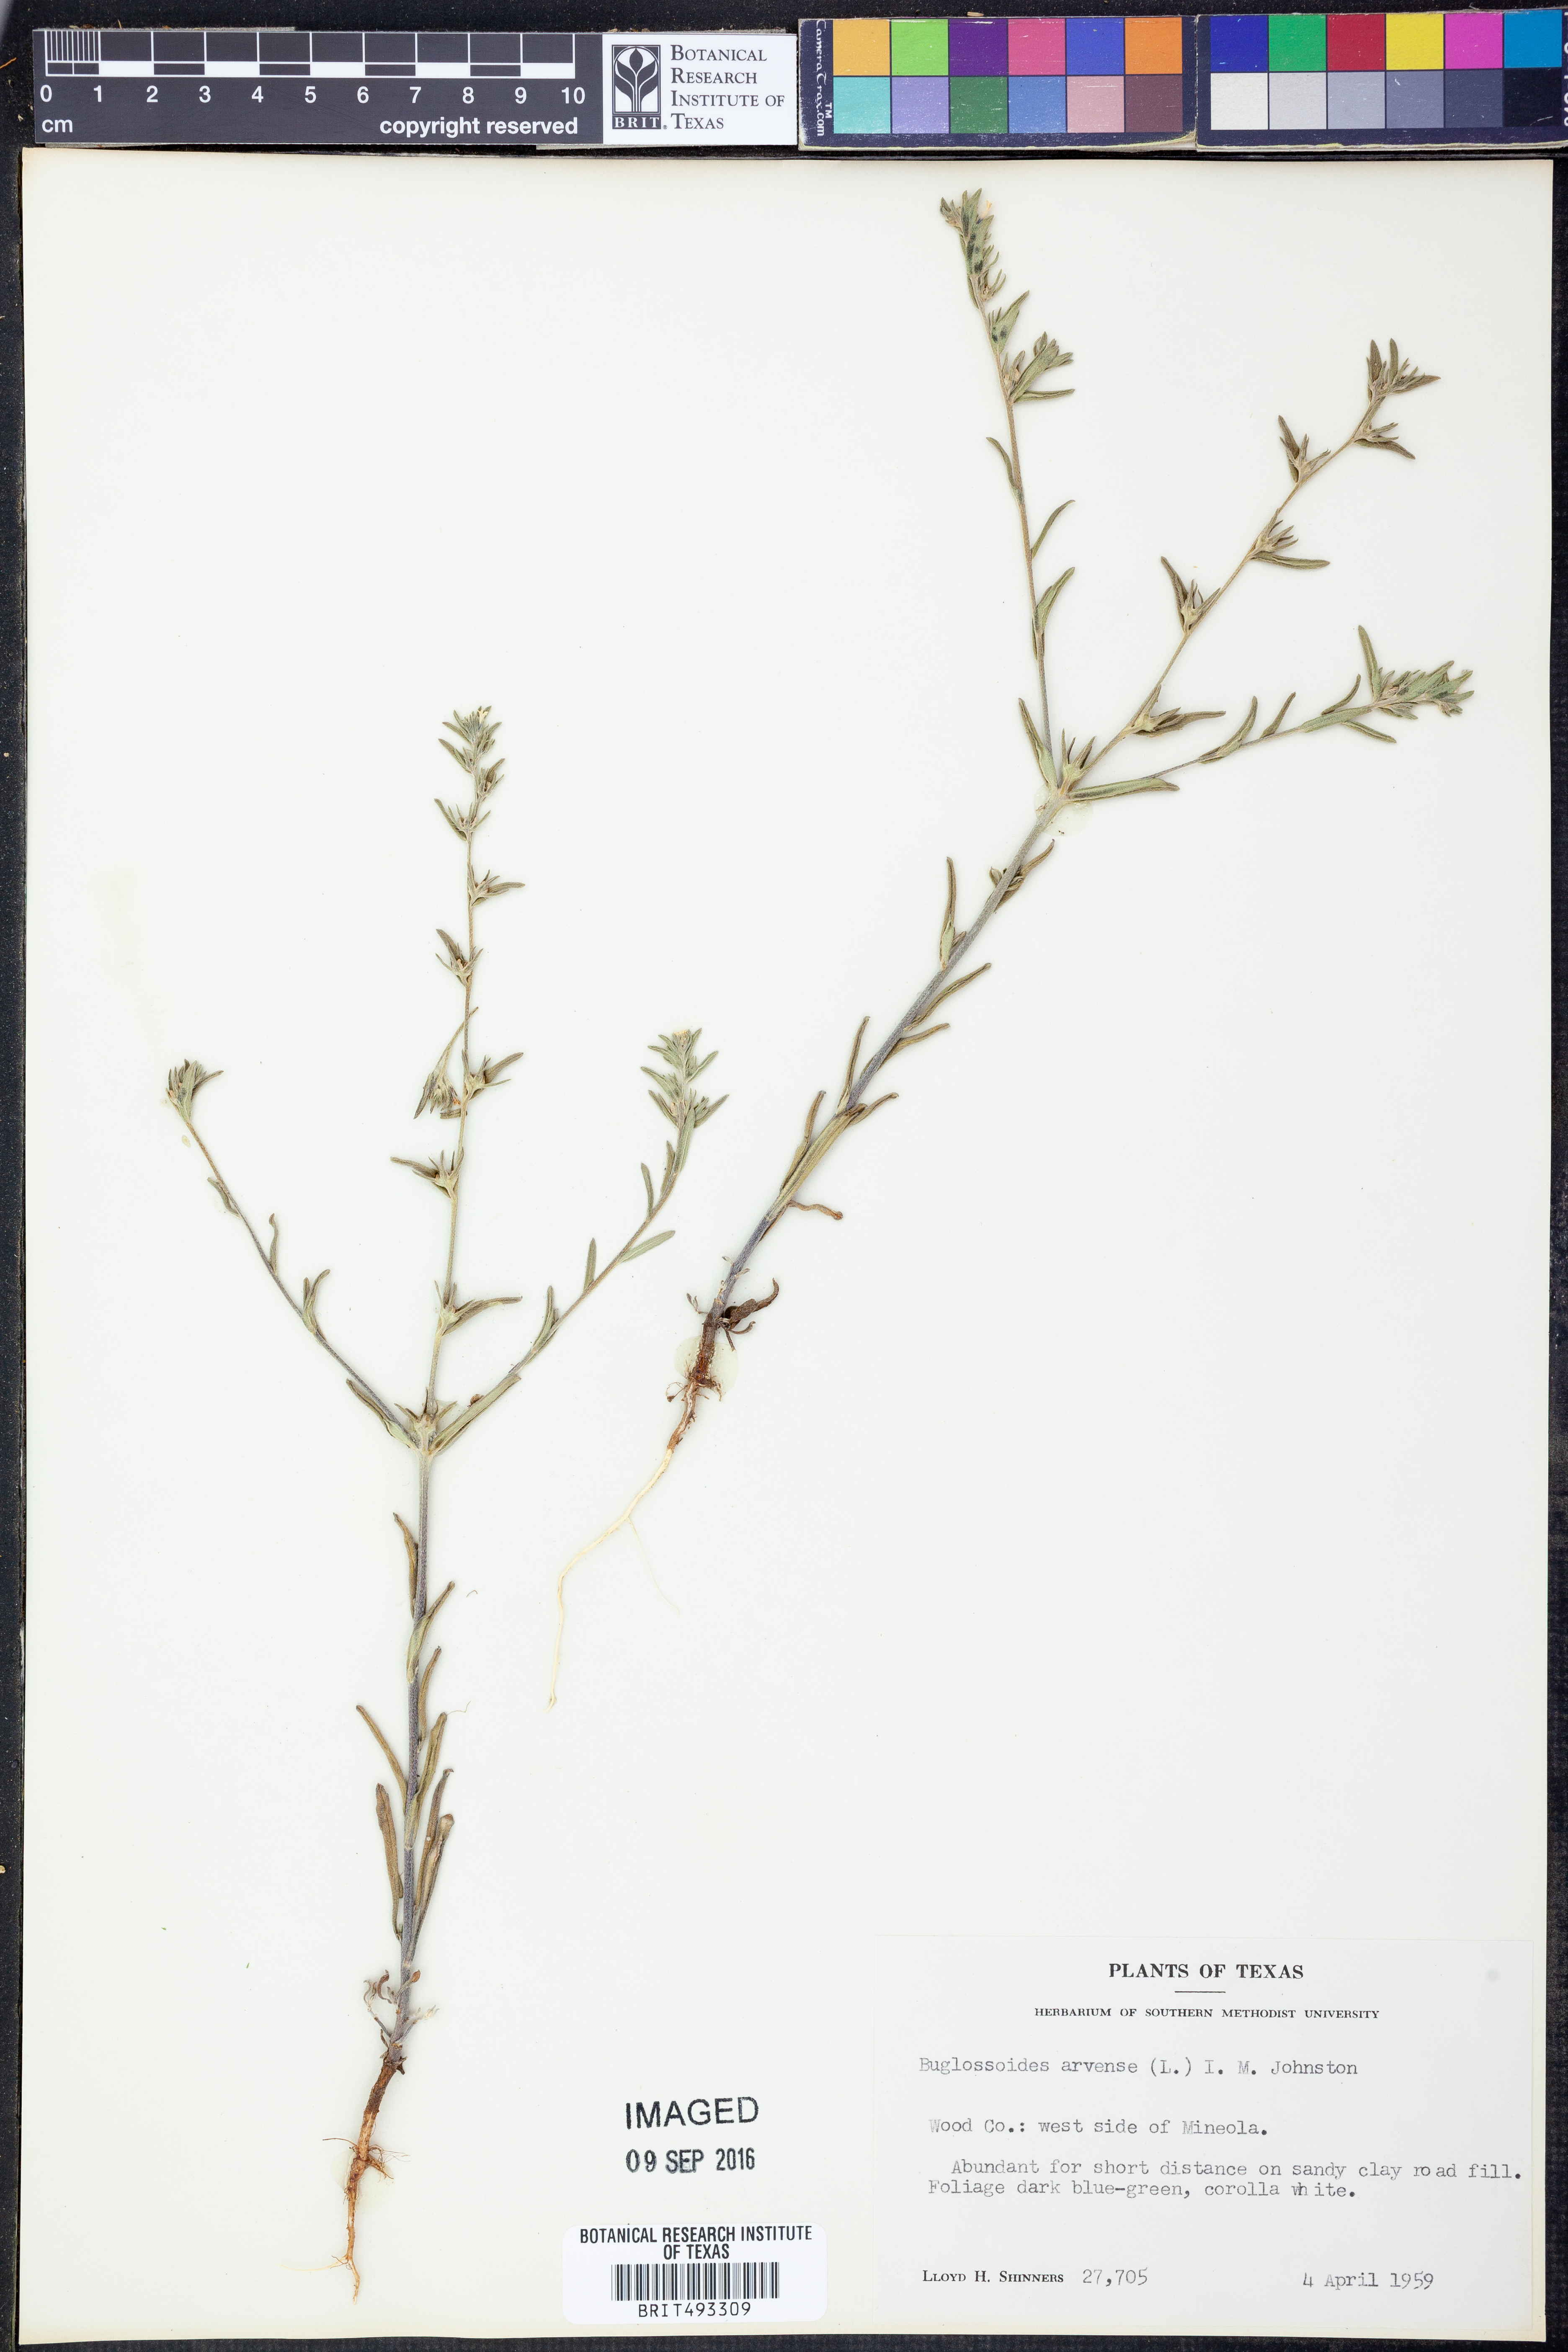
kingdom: Plantae
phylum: Tracheophyta
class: Magnoliopsida
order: Boraginales
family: Boraginaceae
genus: Buglossoides
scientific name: Buglossoides arvensis
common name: Corn gromwell
